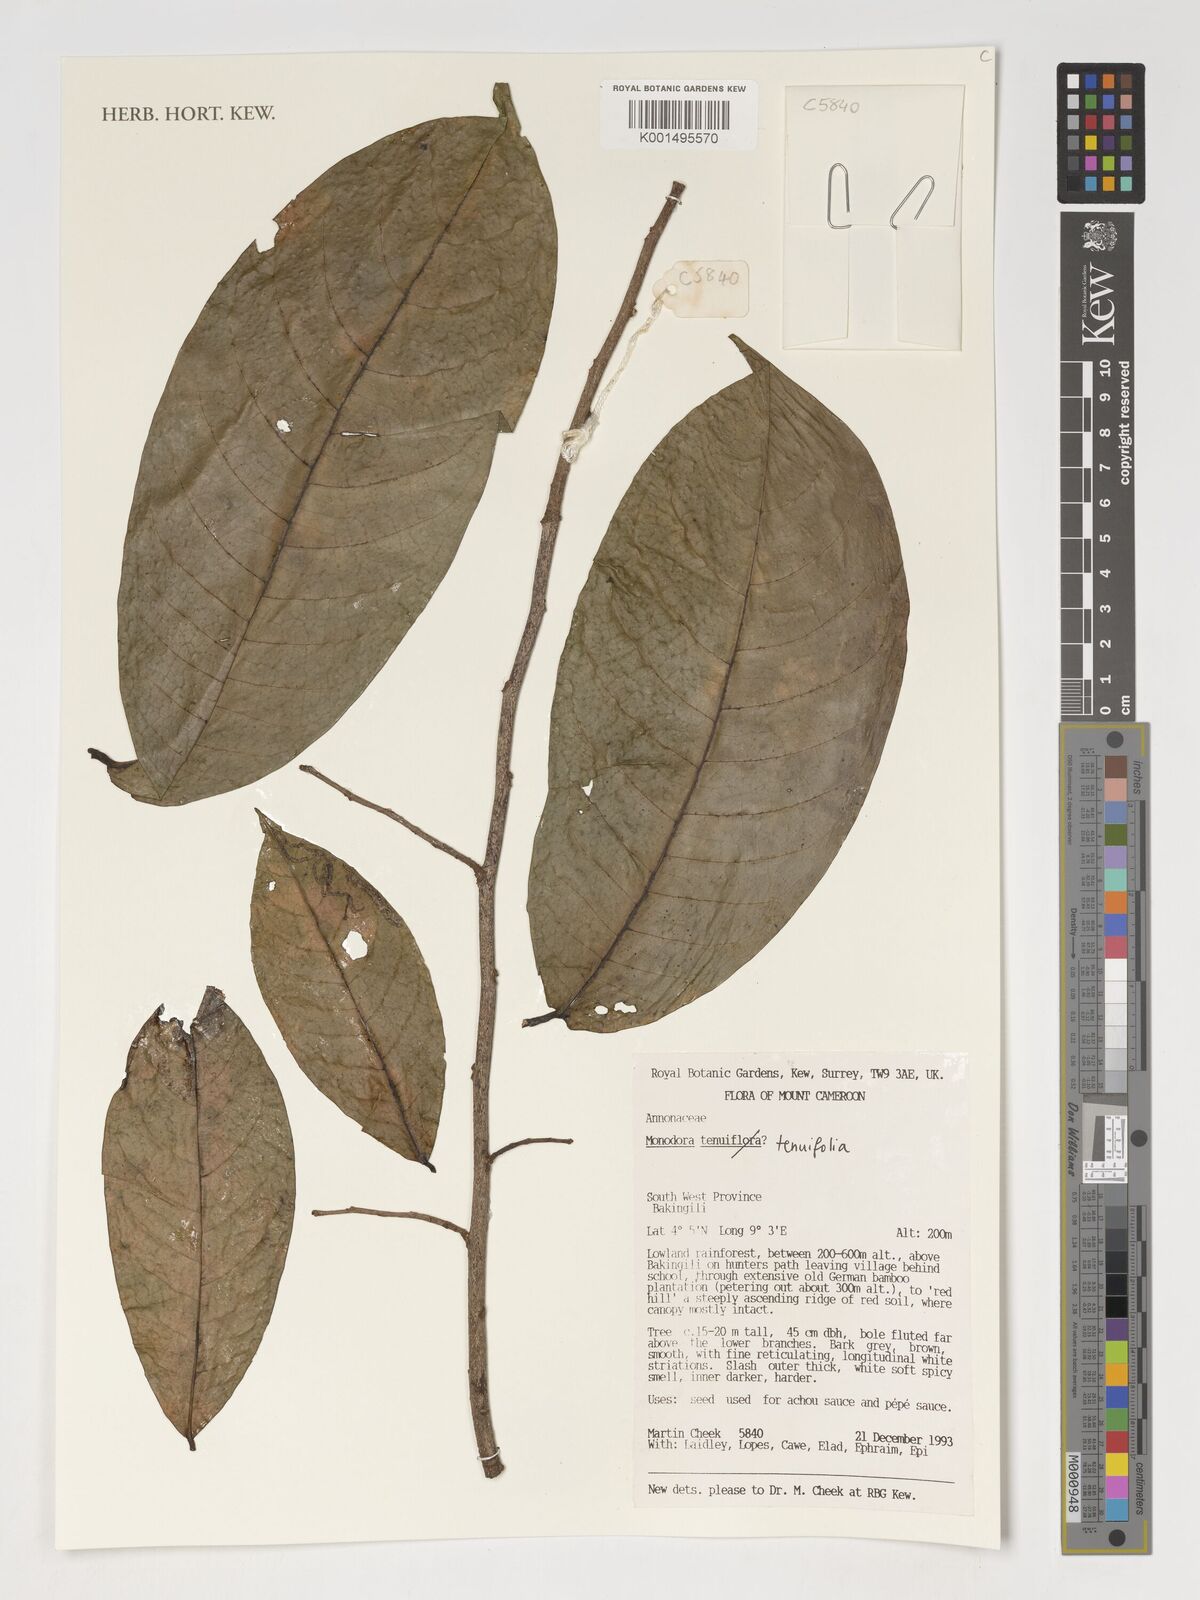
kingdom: Plantae
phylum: Tracheophyta
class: Magnoliopsida
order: Magnoliales
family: Annonaceae
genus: Monodora
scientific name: Monodora tenuifolia
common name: Orchidtree
